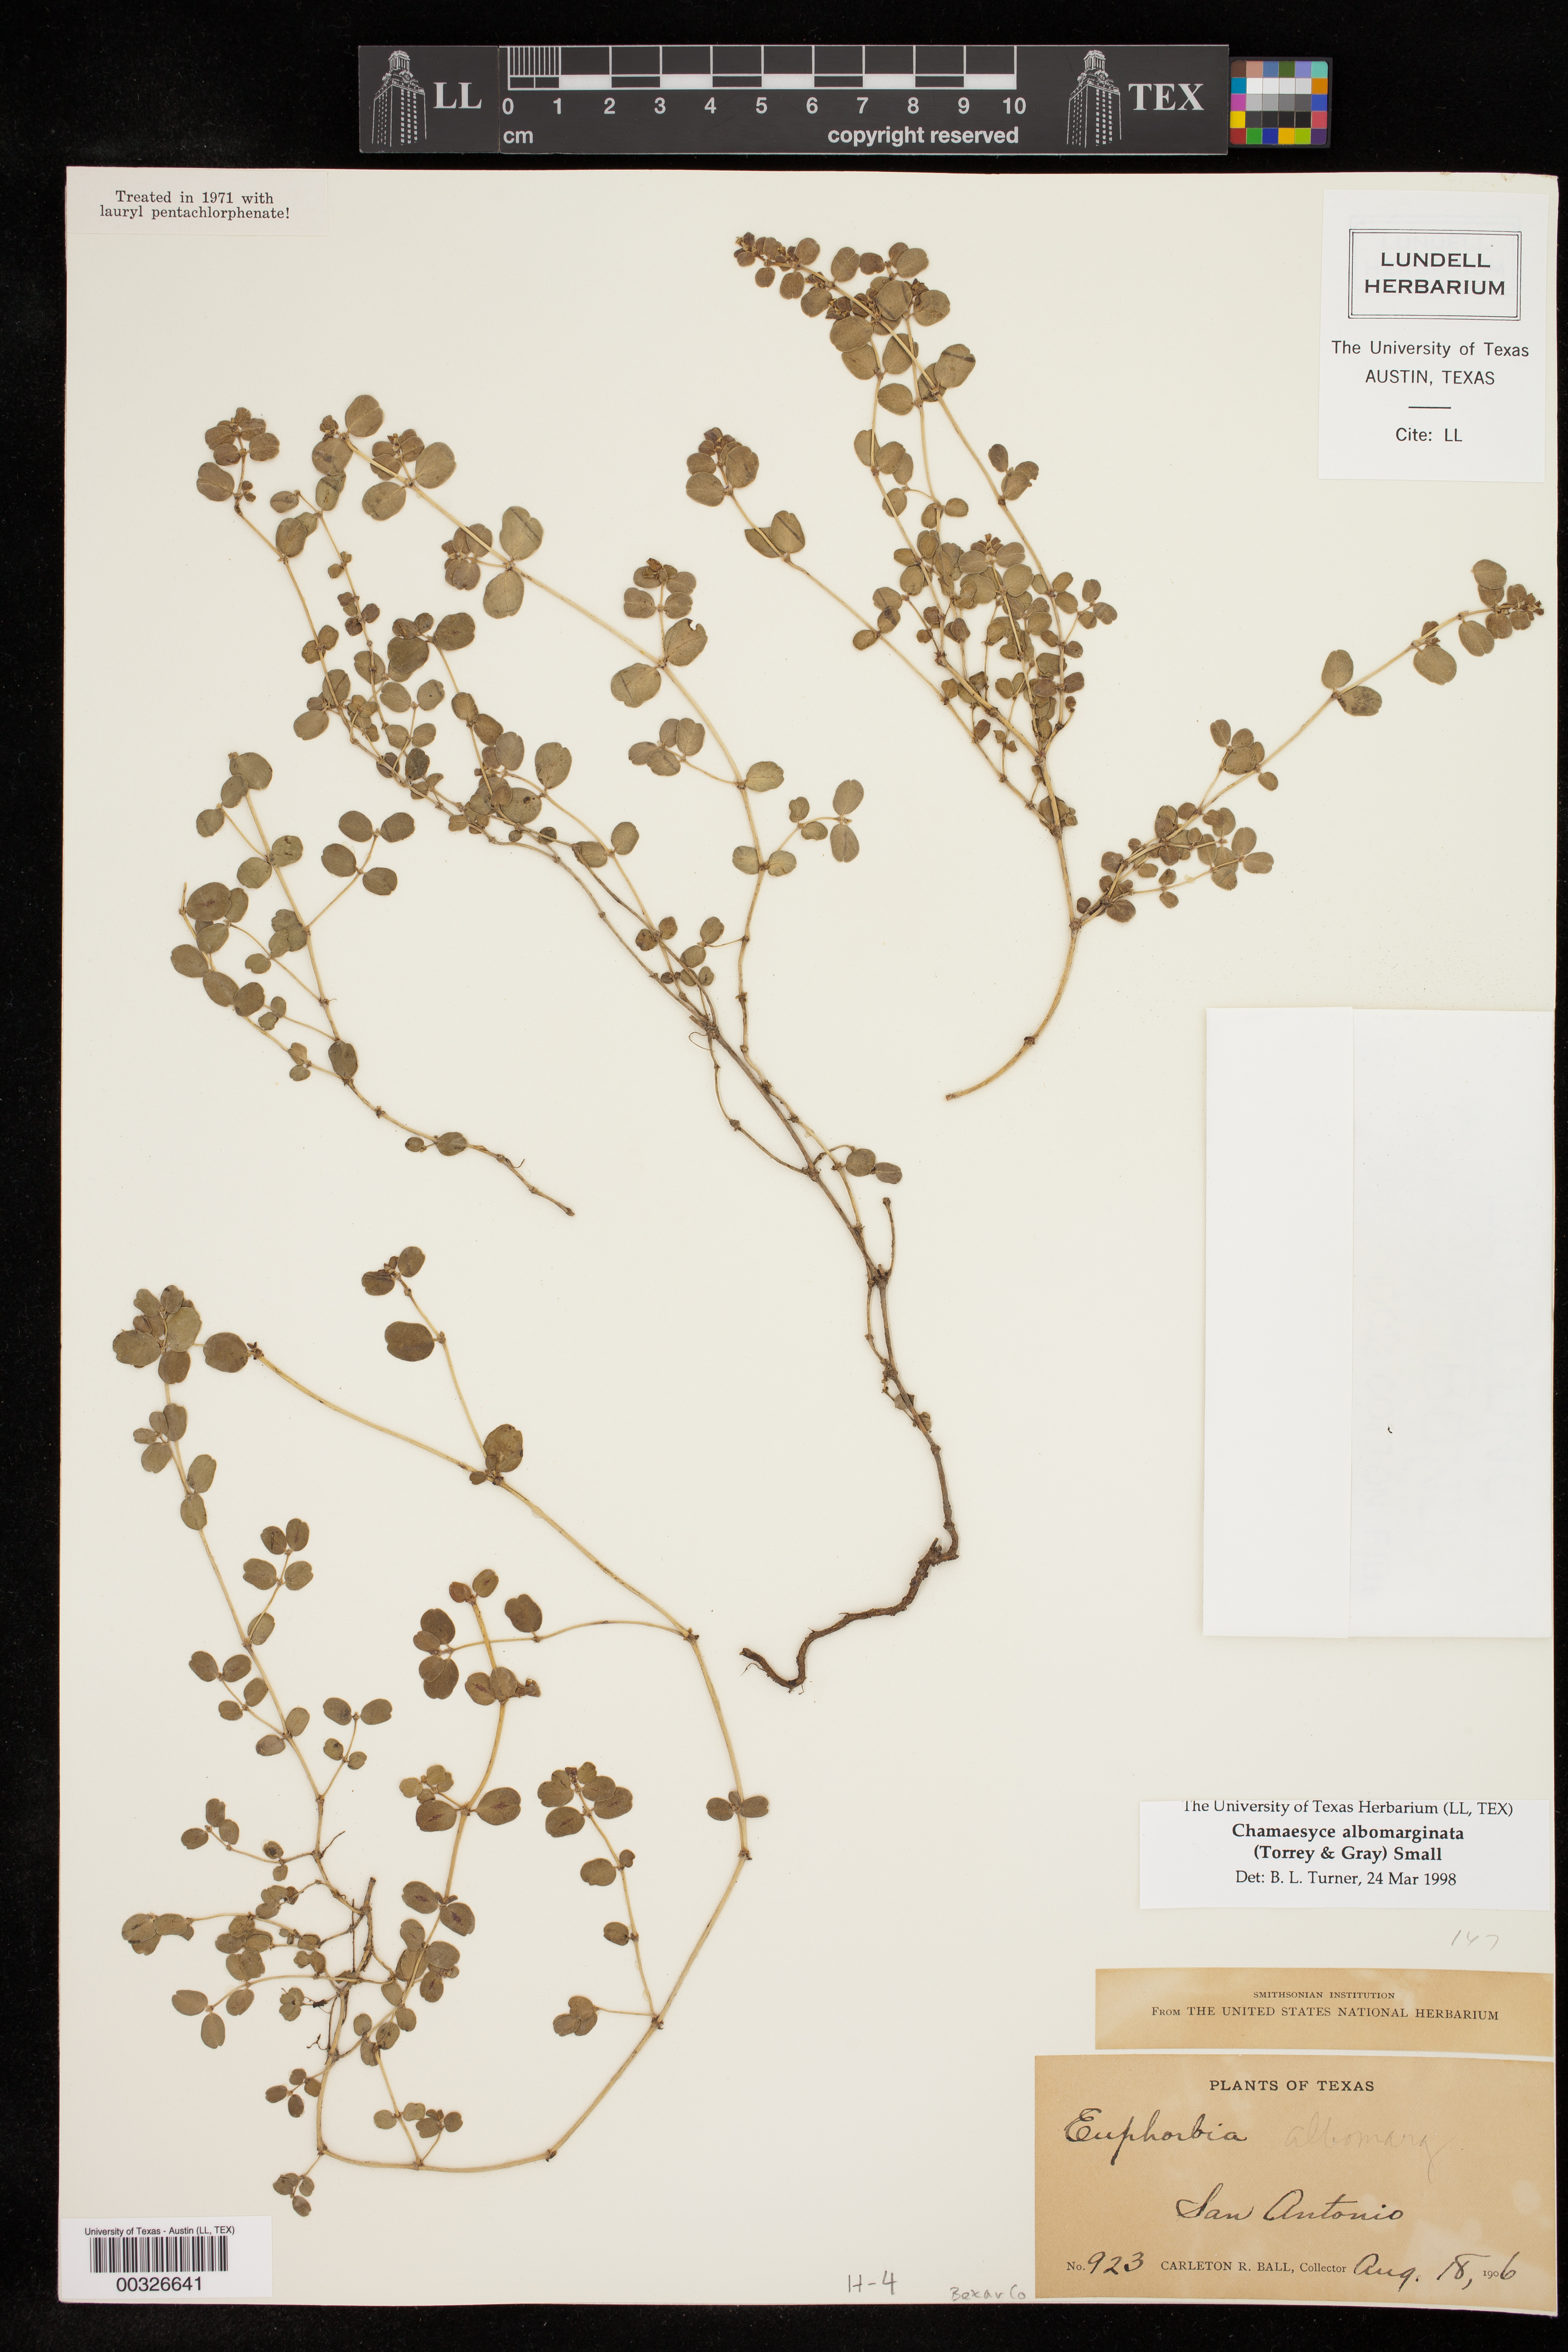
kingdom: Plantae
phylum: Tracheophyta
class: Magnoliopsida
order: Malpighiales
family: Euphorbiaceae
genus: Euphorbia
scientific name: Euphorbia albomarginata
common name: Whitemargin sandmat
